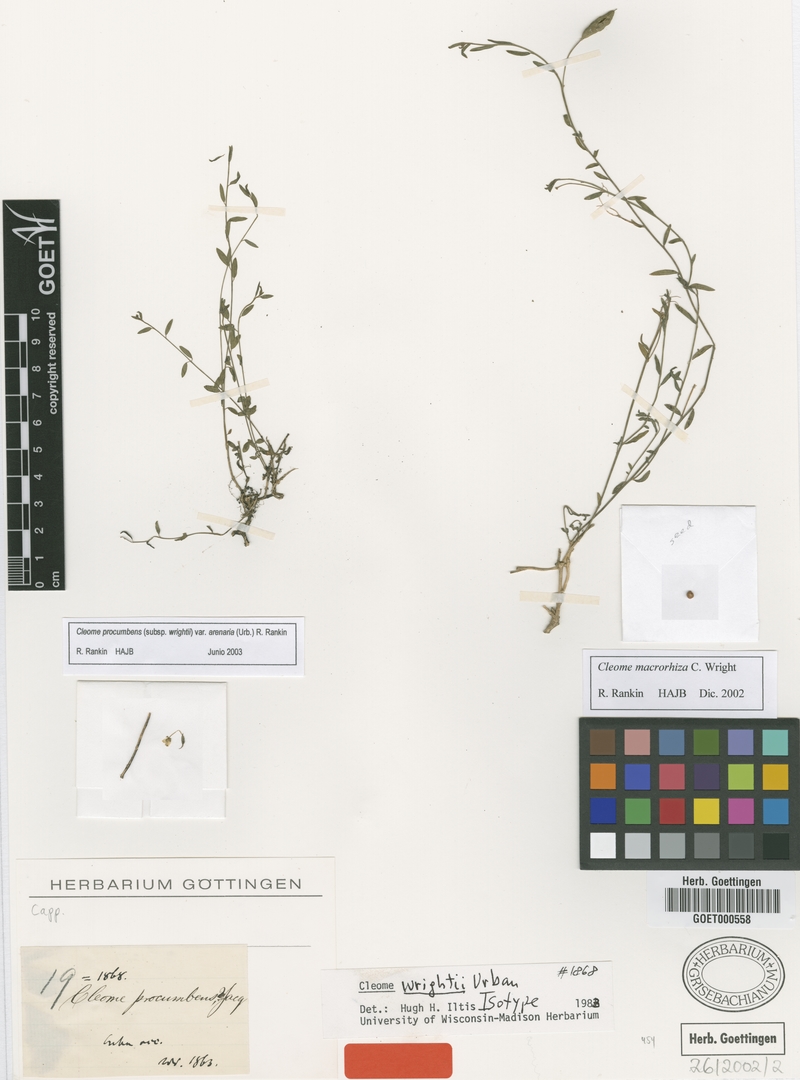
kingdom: Plantae
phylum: Tracheophyta
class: Magnoliopsida
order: Brassicales
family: Cleomaceae
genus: Physostemon
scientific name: Physostemon procumbens
